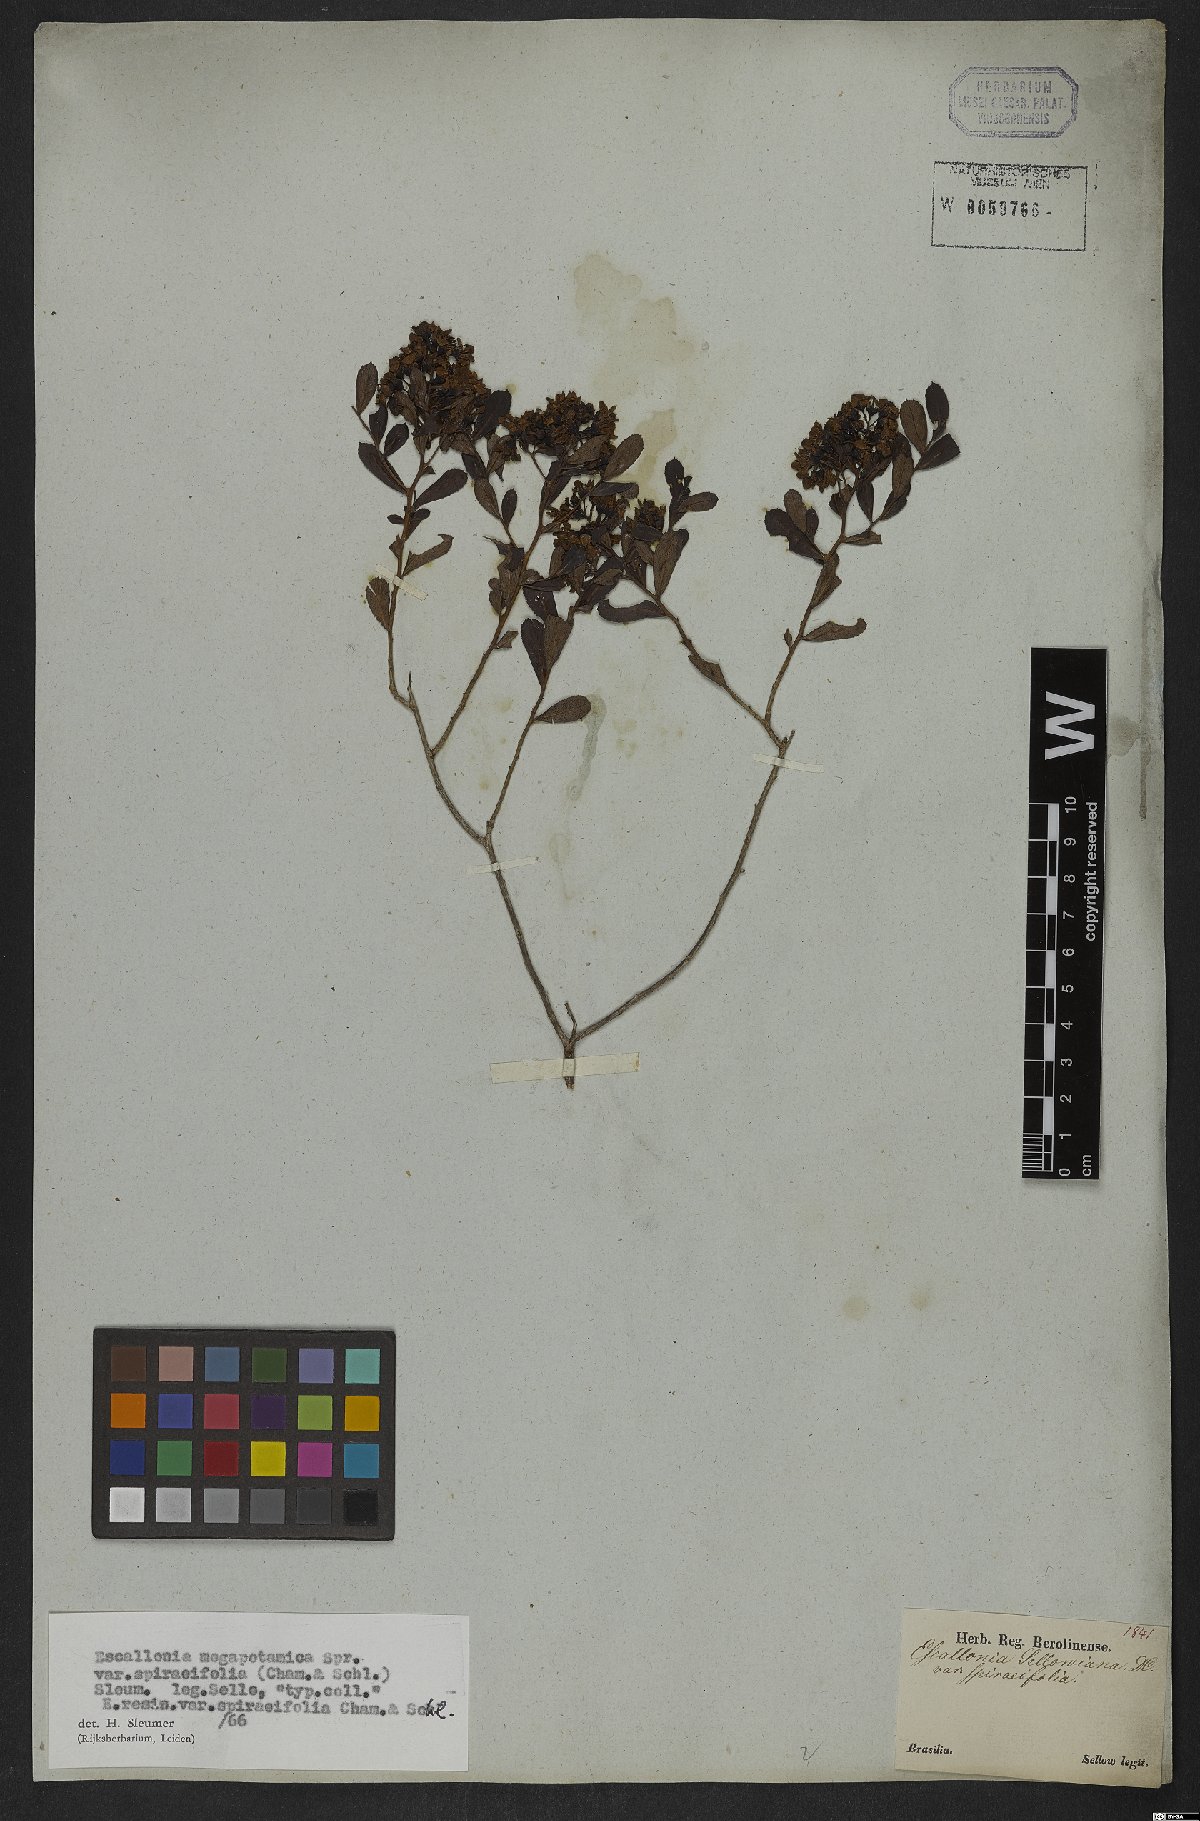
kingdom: Plantae
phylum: Tracheophyta
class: Magnoliopsida
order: Escalloniales
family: Escalloniaceae
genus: Escallonia
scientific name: Escallonia megapotamica
